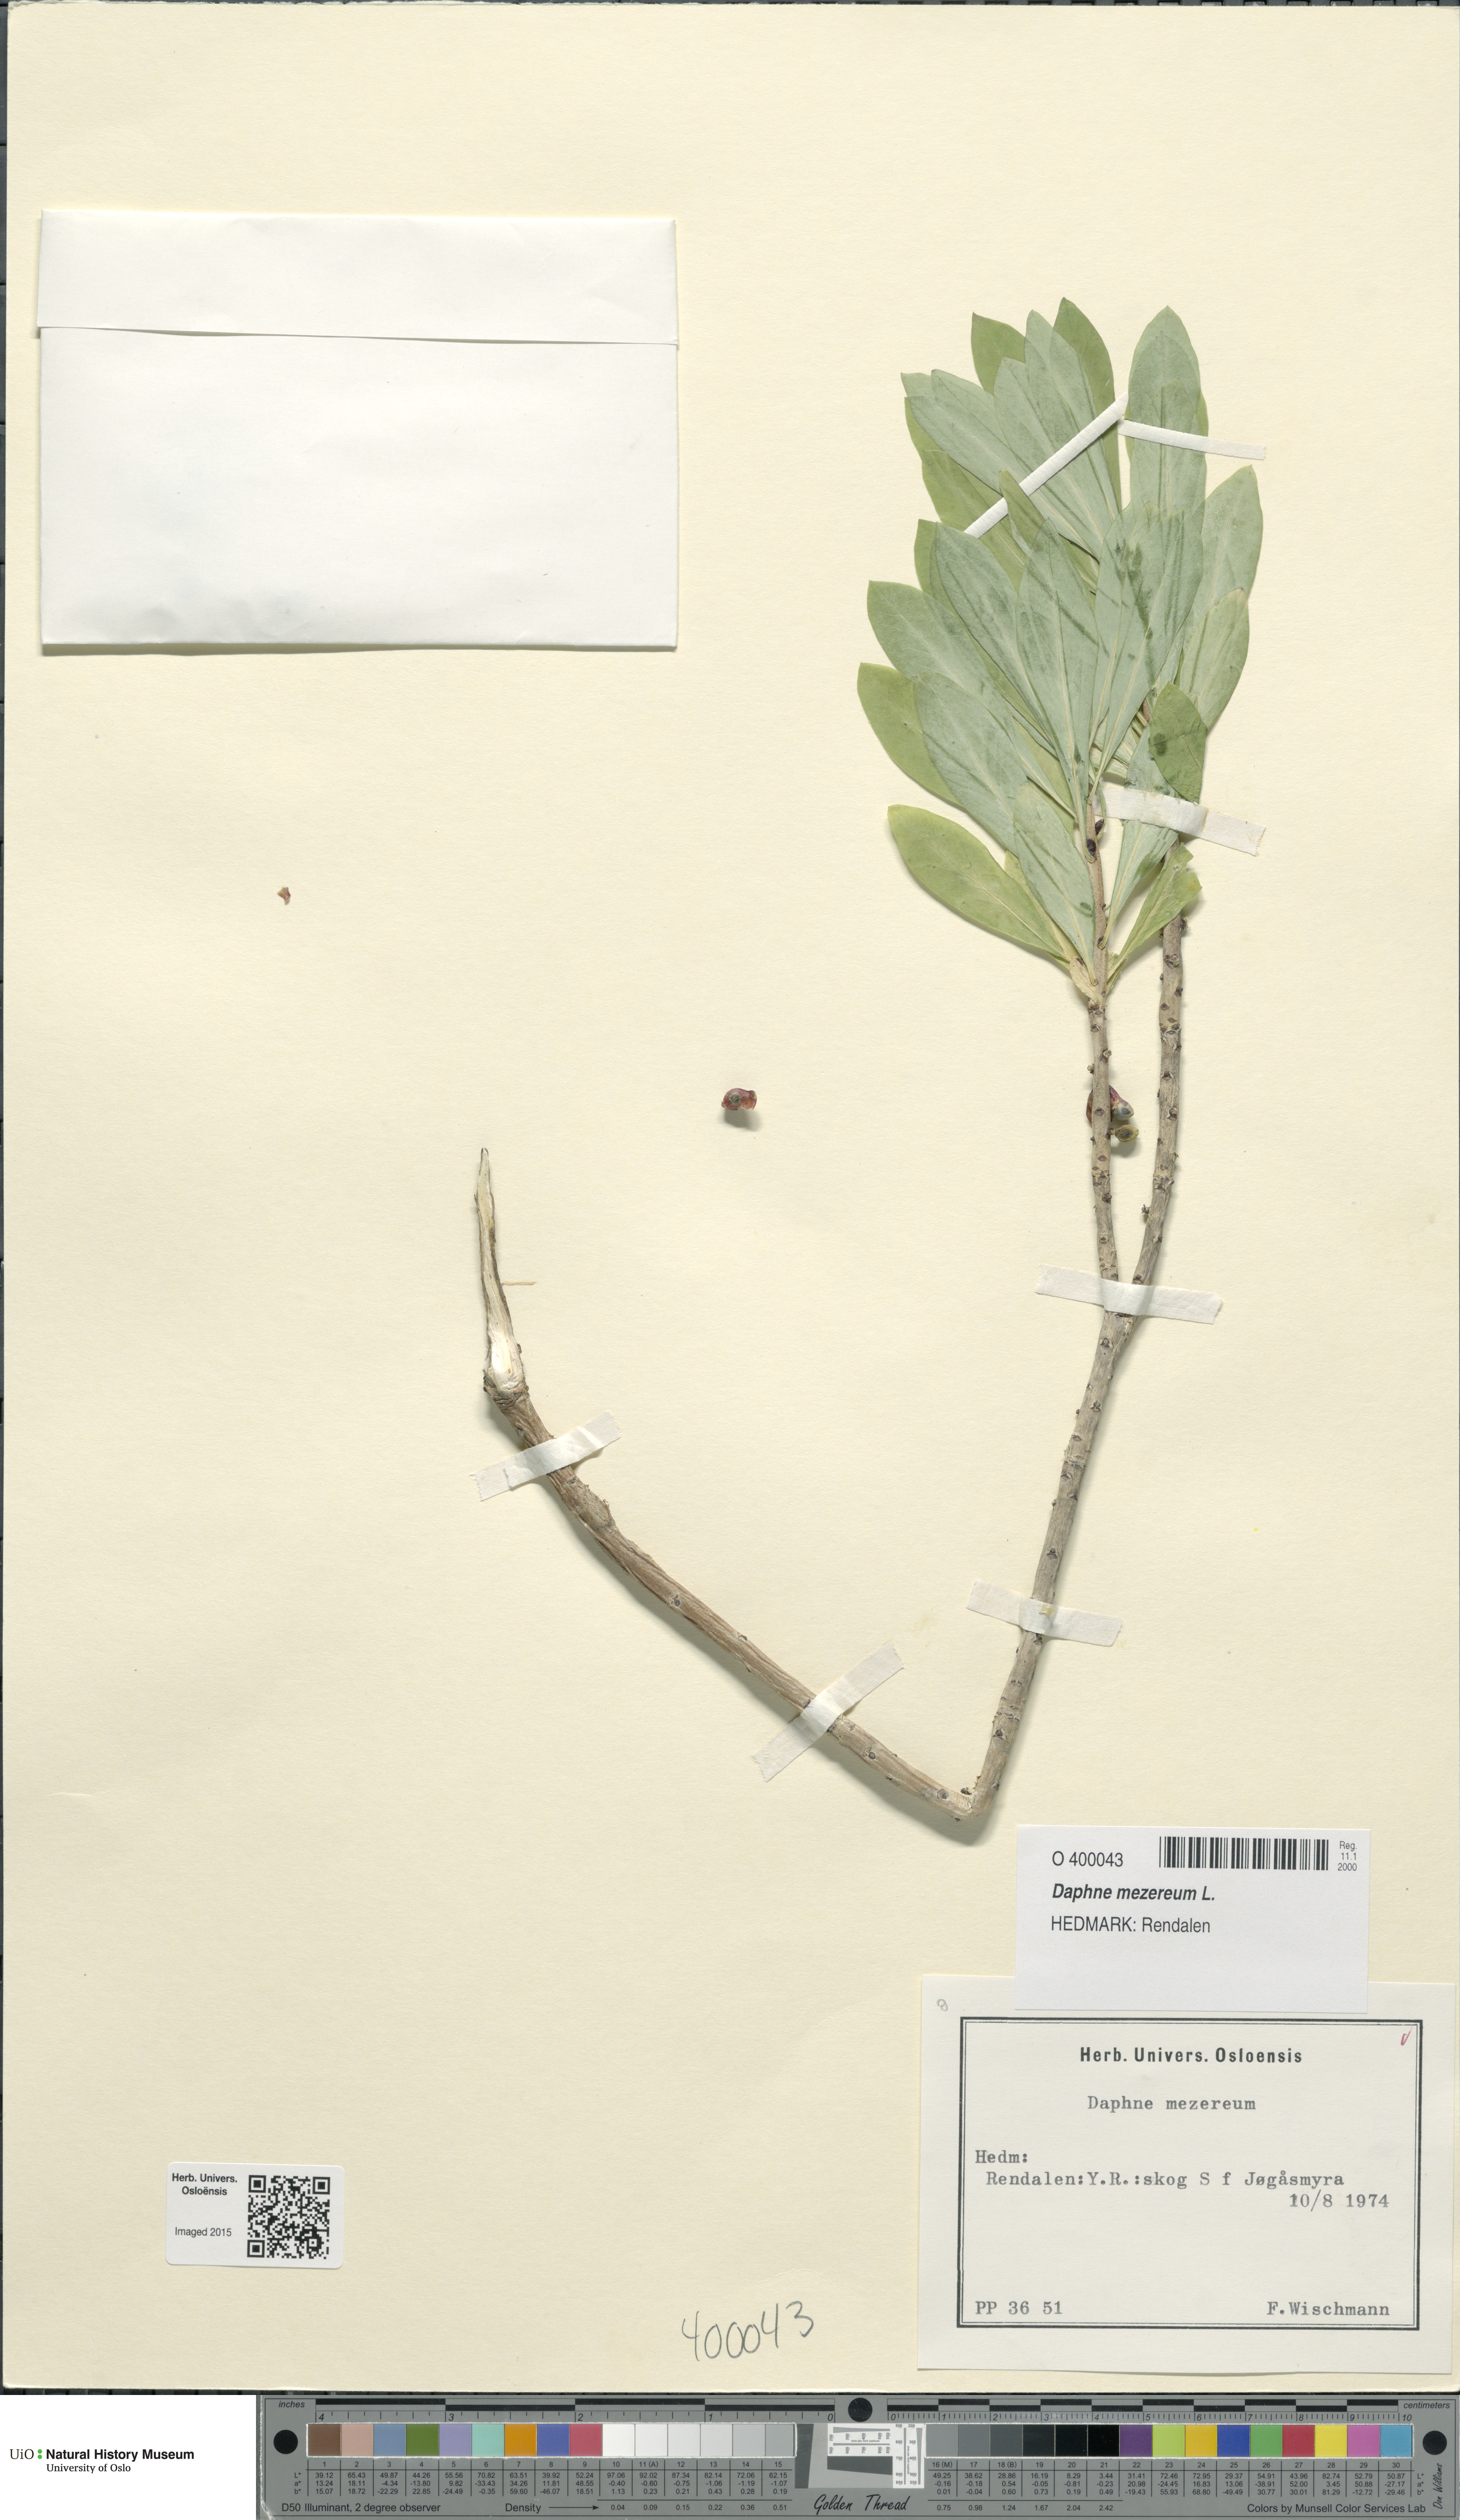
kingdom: Plantae
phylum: Tracheophyta
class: Magnoliopsida
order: Malvales
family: Thymelaeaceae
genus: Daphne
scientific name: Daphne mezereum
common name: Mezereon
